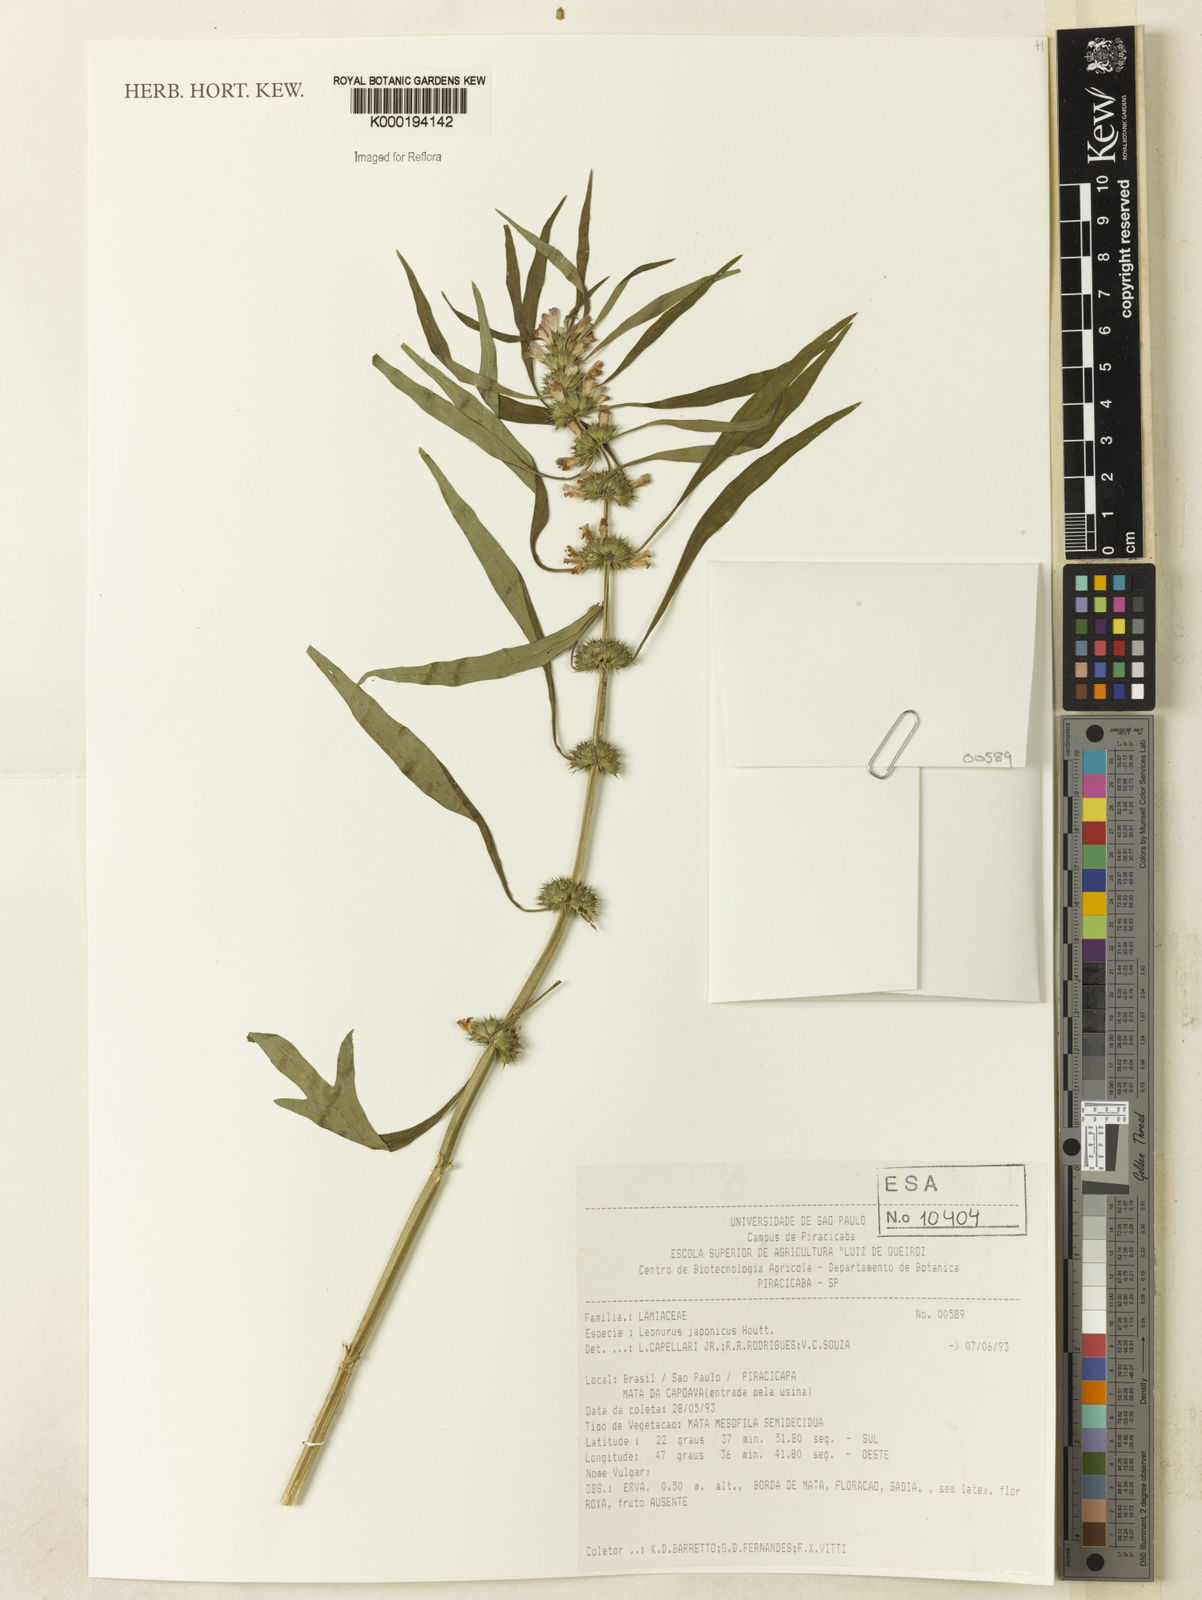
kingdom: Plantae
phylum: Tracheophyta
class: Magnoliopsida
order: Lamiales
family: Lamiaceae
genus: Leonurus
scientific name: Leonurus japonicus
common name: Honeyweed
